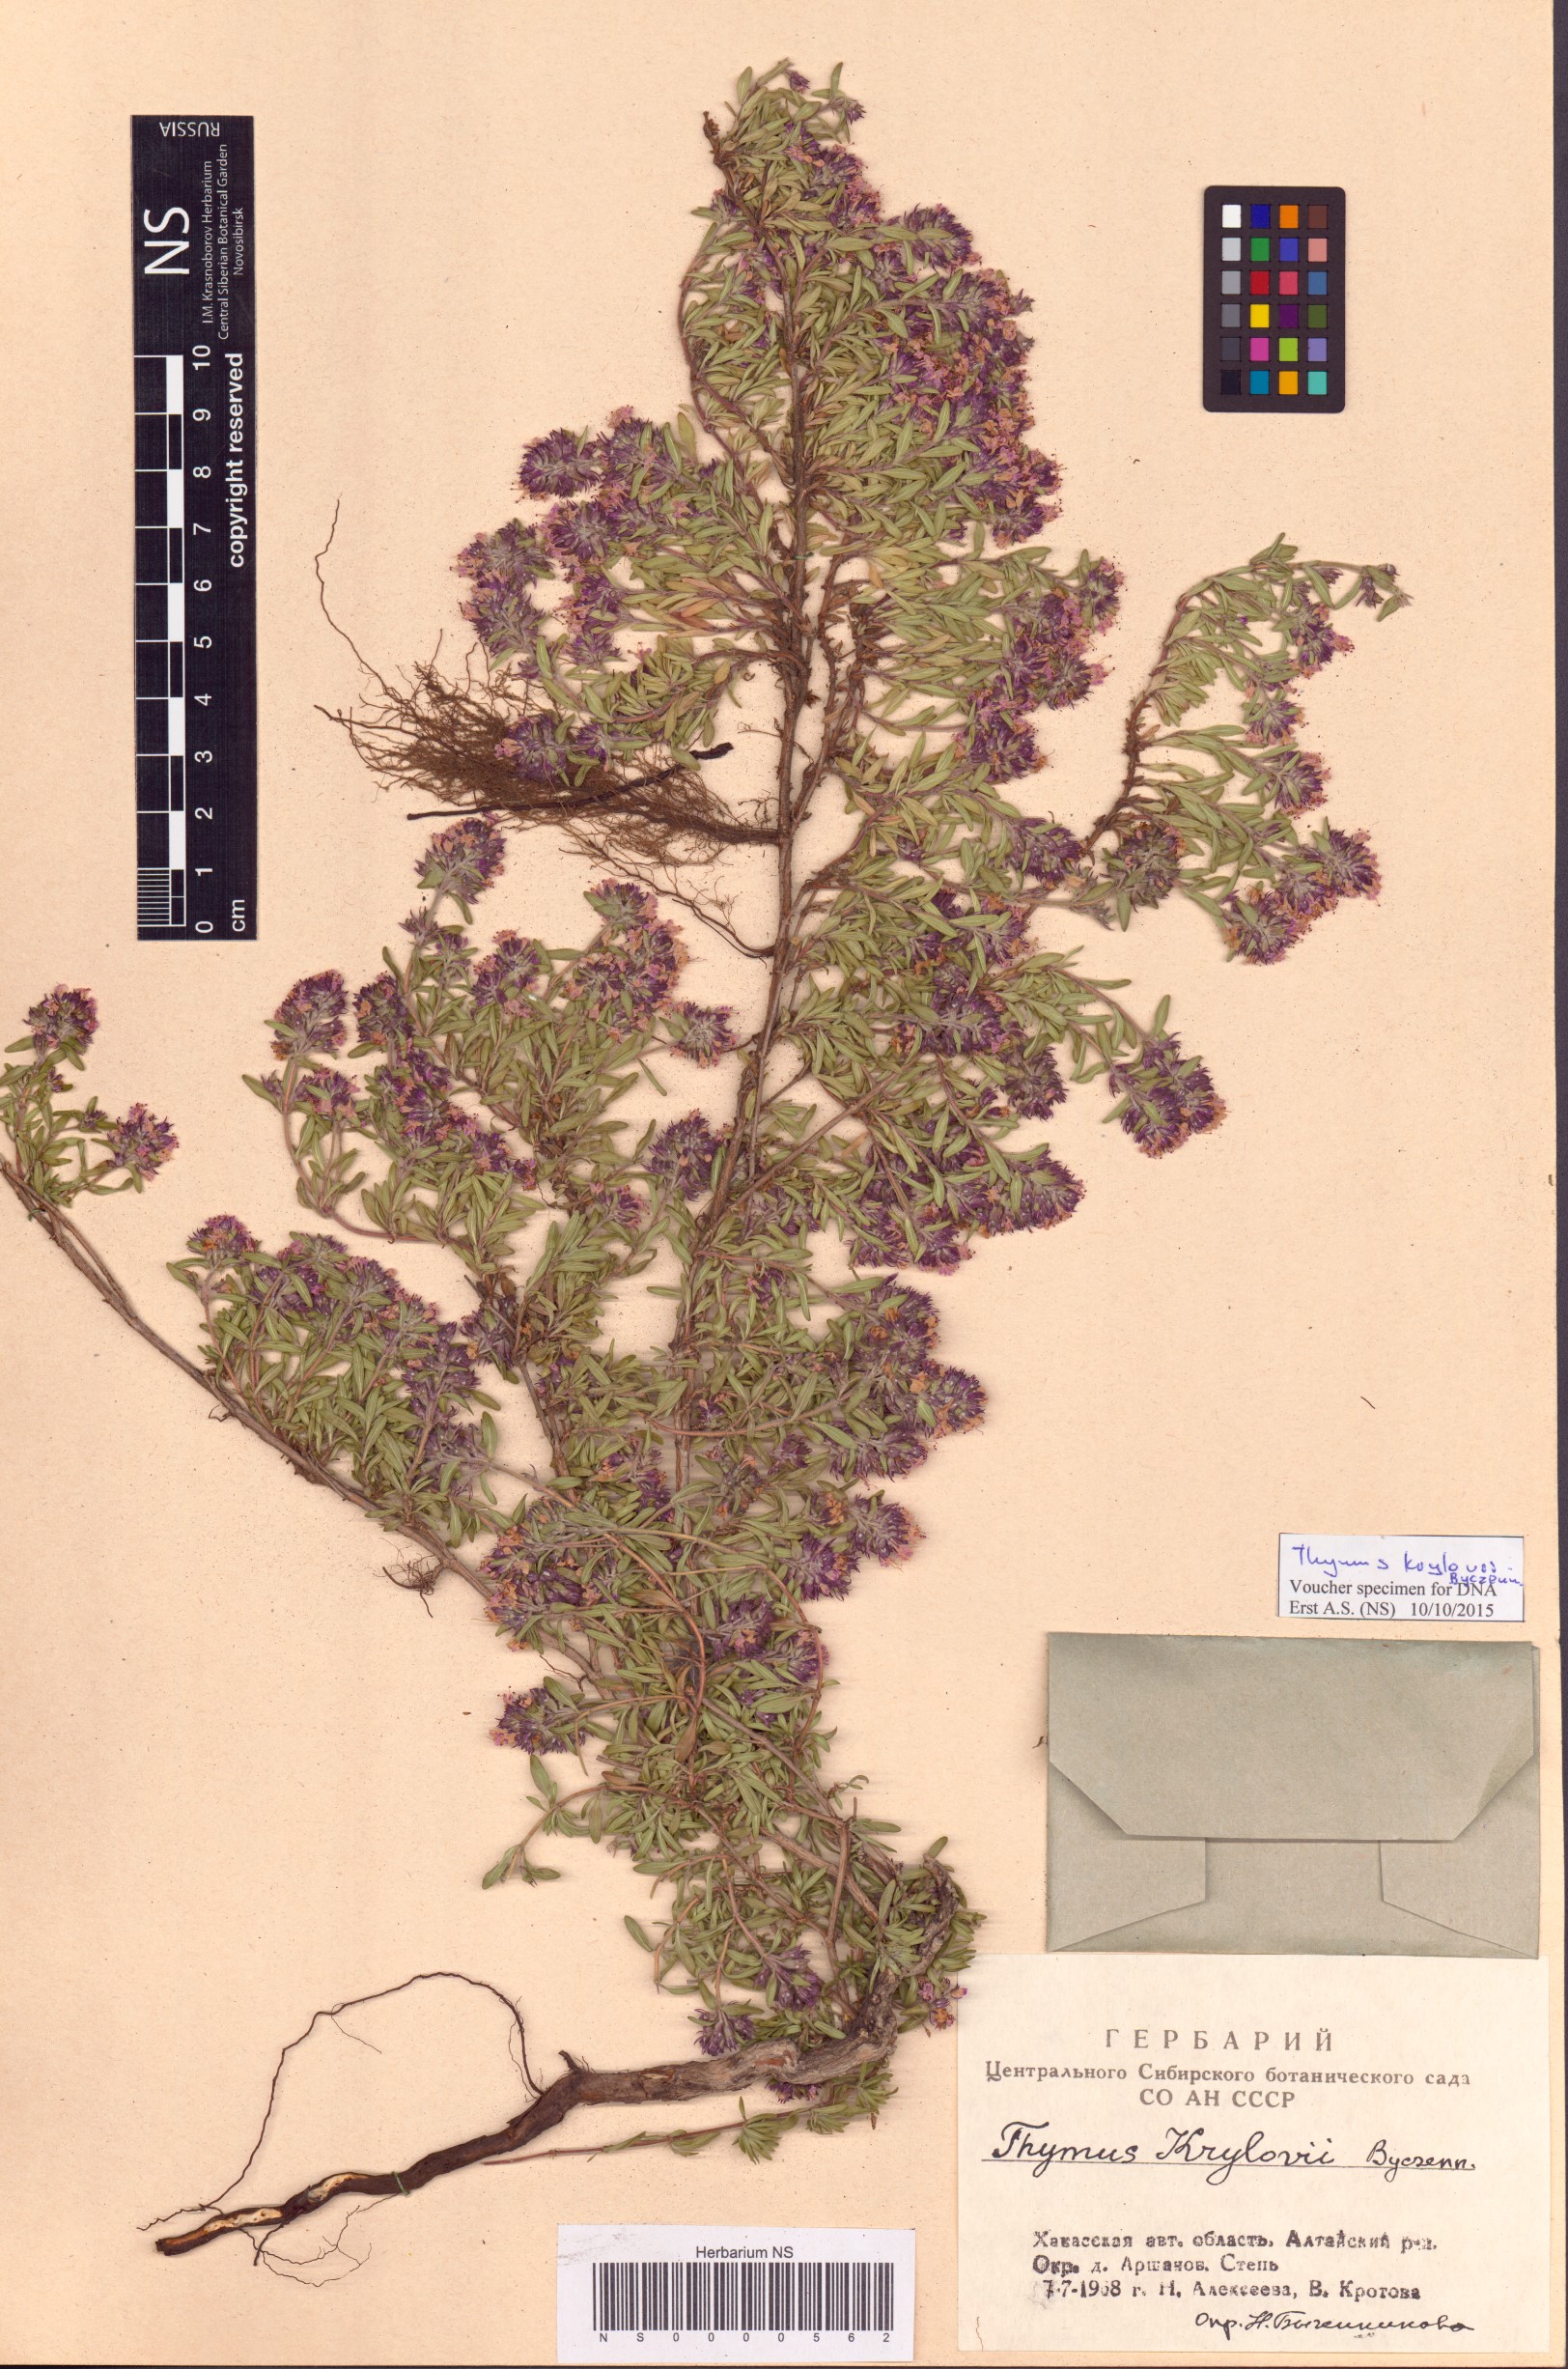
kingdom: Plantae
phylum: Tracheophyta
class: Magnoliopsida
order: Lamiales
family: Lamiaceae
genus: Thymus
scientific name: Thymus krylovii
